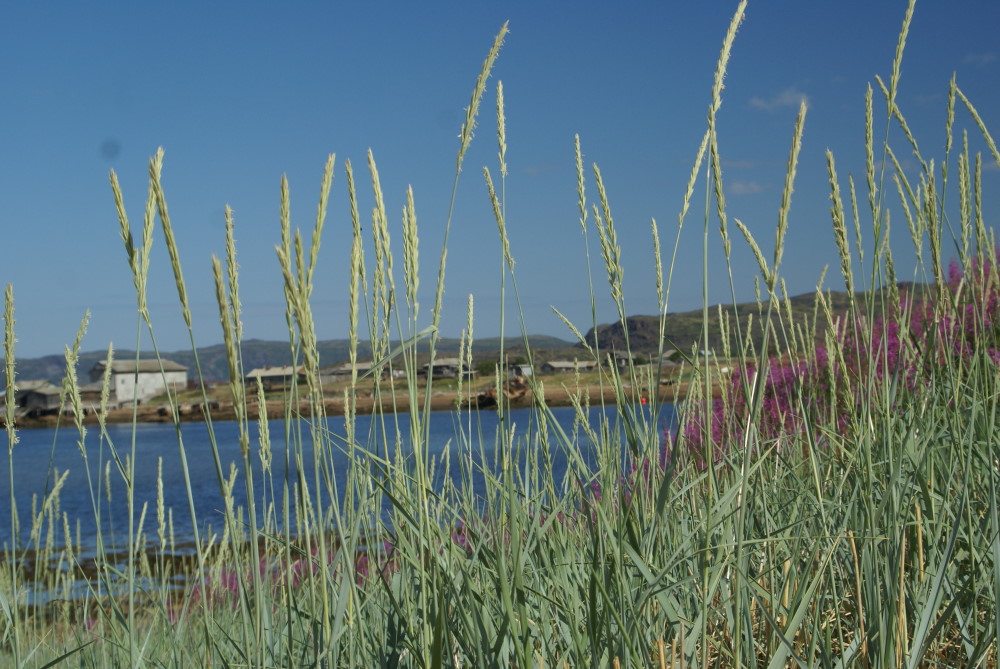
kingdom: Plantae
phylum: Tracheophyta
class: Liliopsida
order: Poales
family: Poaceae
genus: Leymus
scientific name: Leymus arenarius
